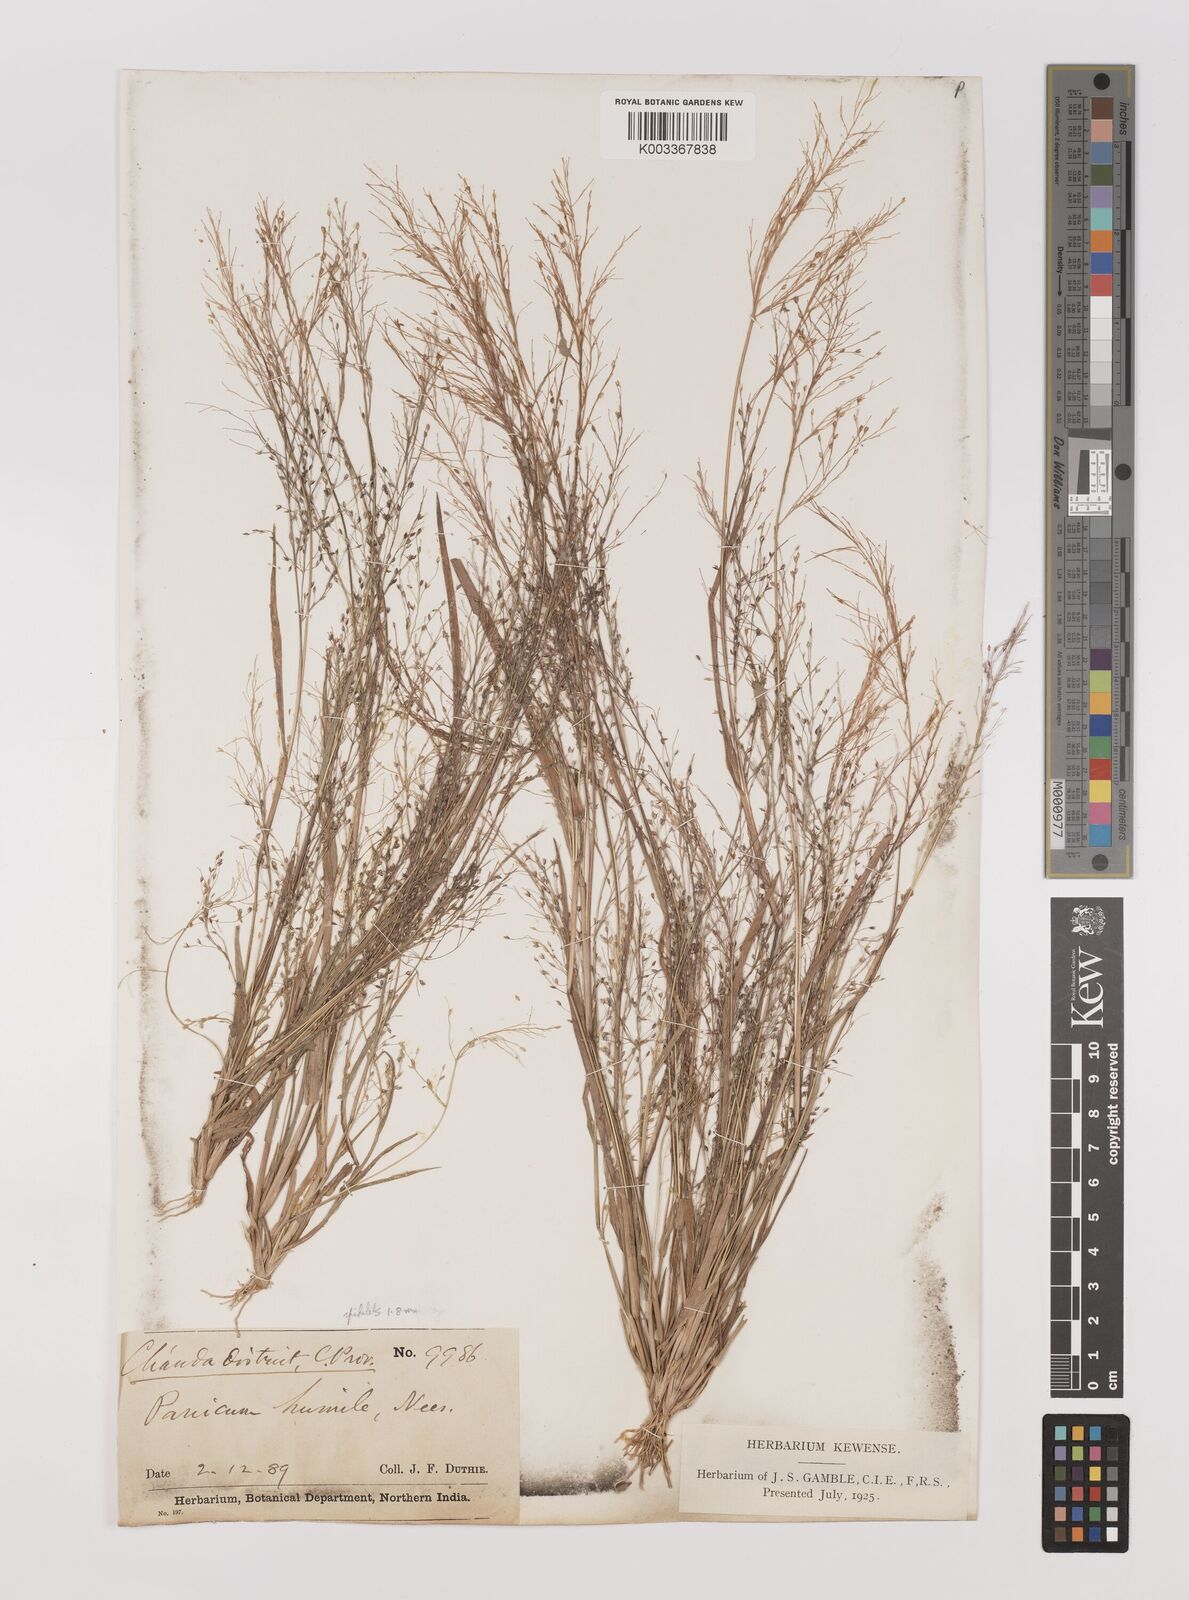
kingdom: Plantae
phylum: Tracheophyta
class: Liliopsida
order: Poales
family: Poaceae
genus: Panicum
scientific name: Panicum humile
